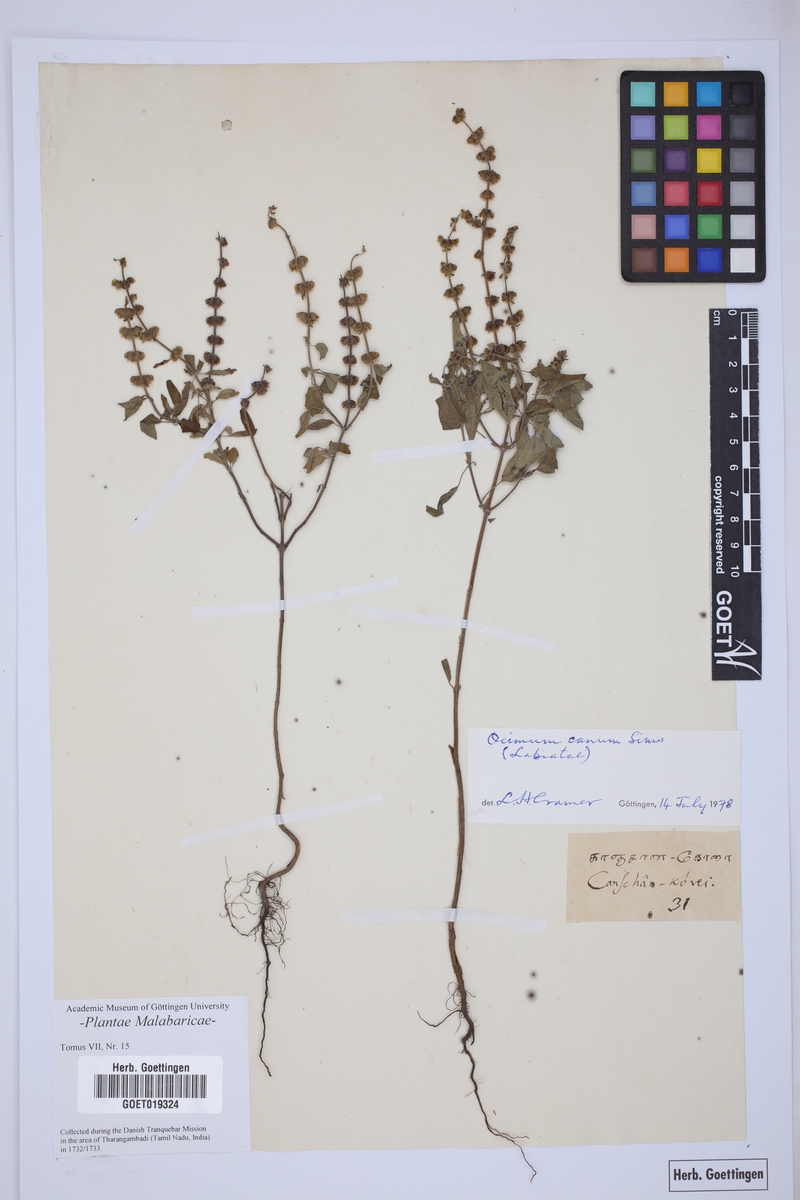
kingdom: Plantae
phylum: Tracheophyta
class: Magnoliopsida
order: Lamiales
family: Lamiaceae
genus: Ocimum
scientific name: Ocimum americanum
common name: American basil
